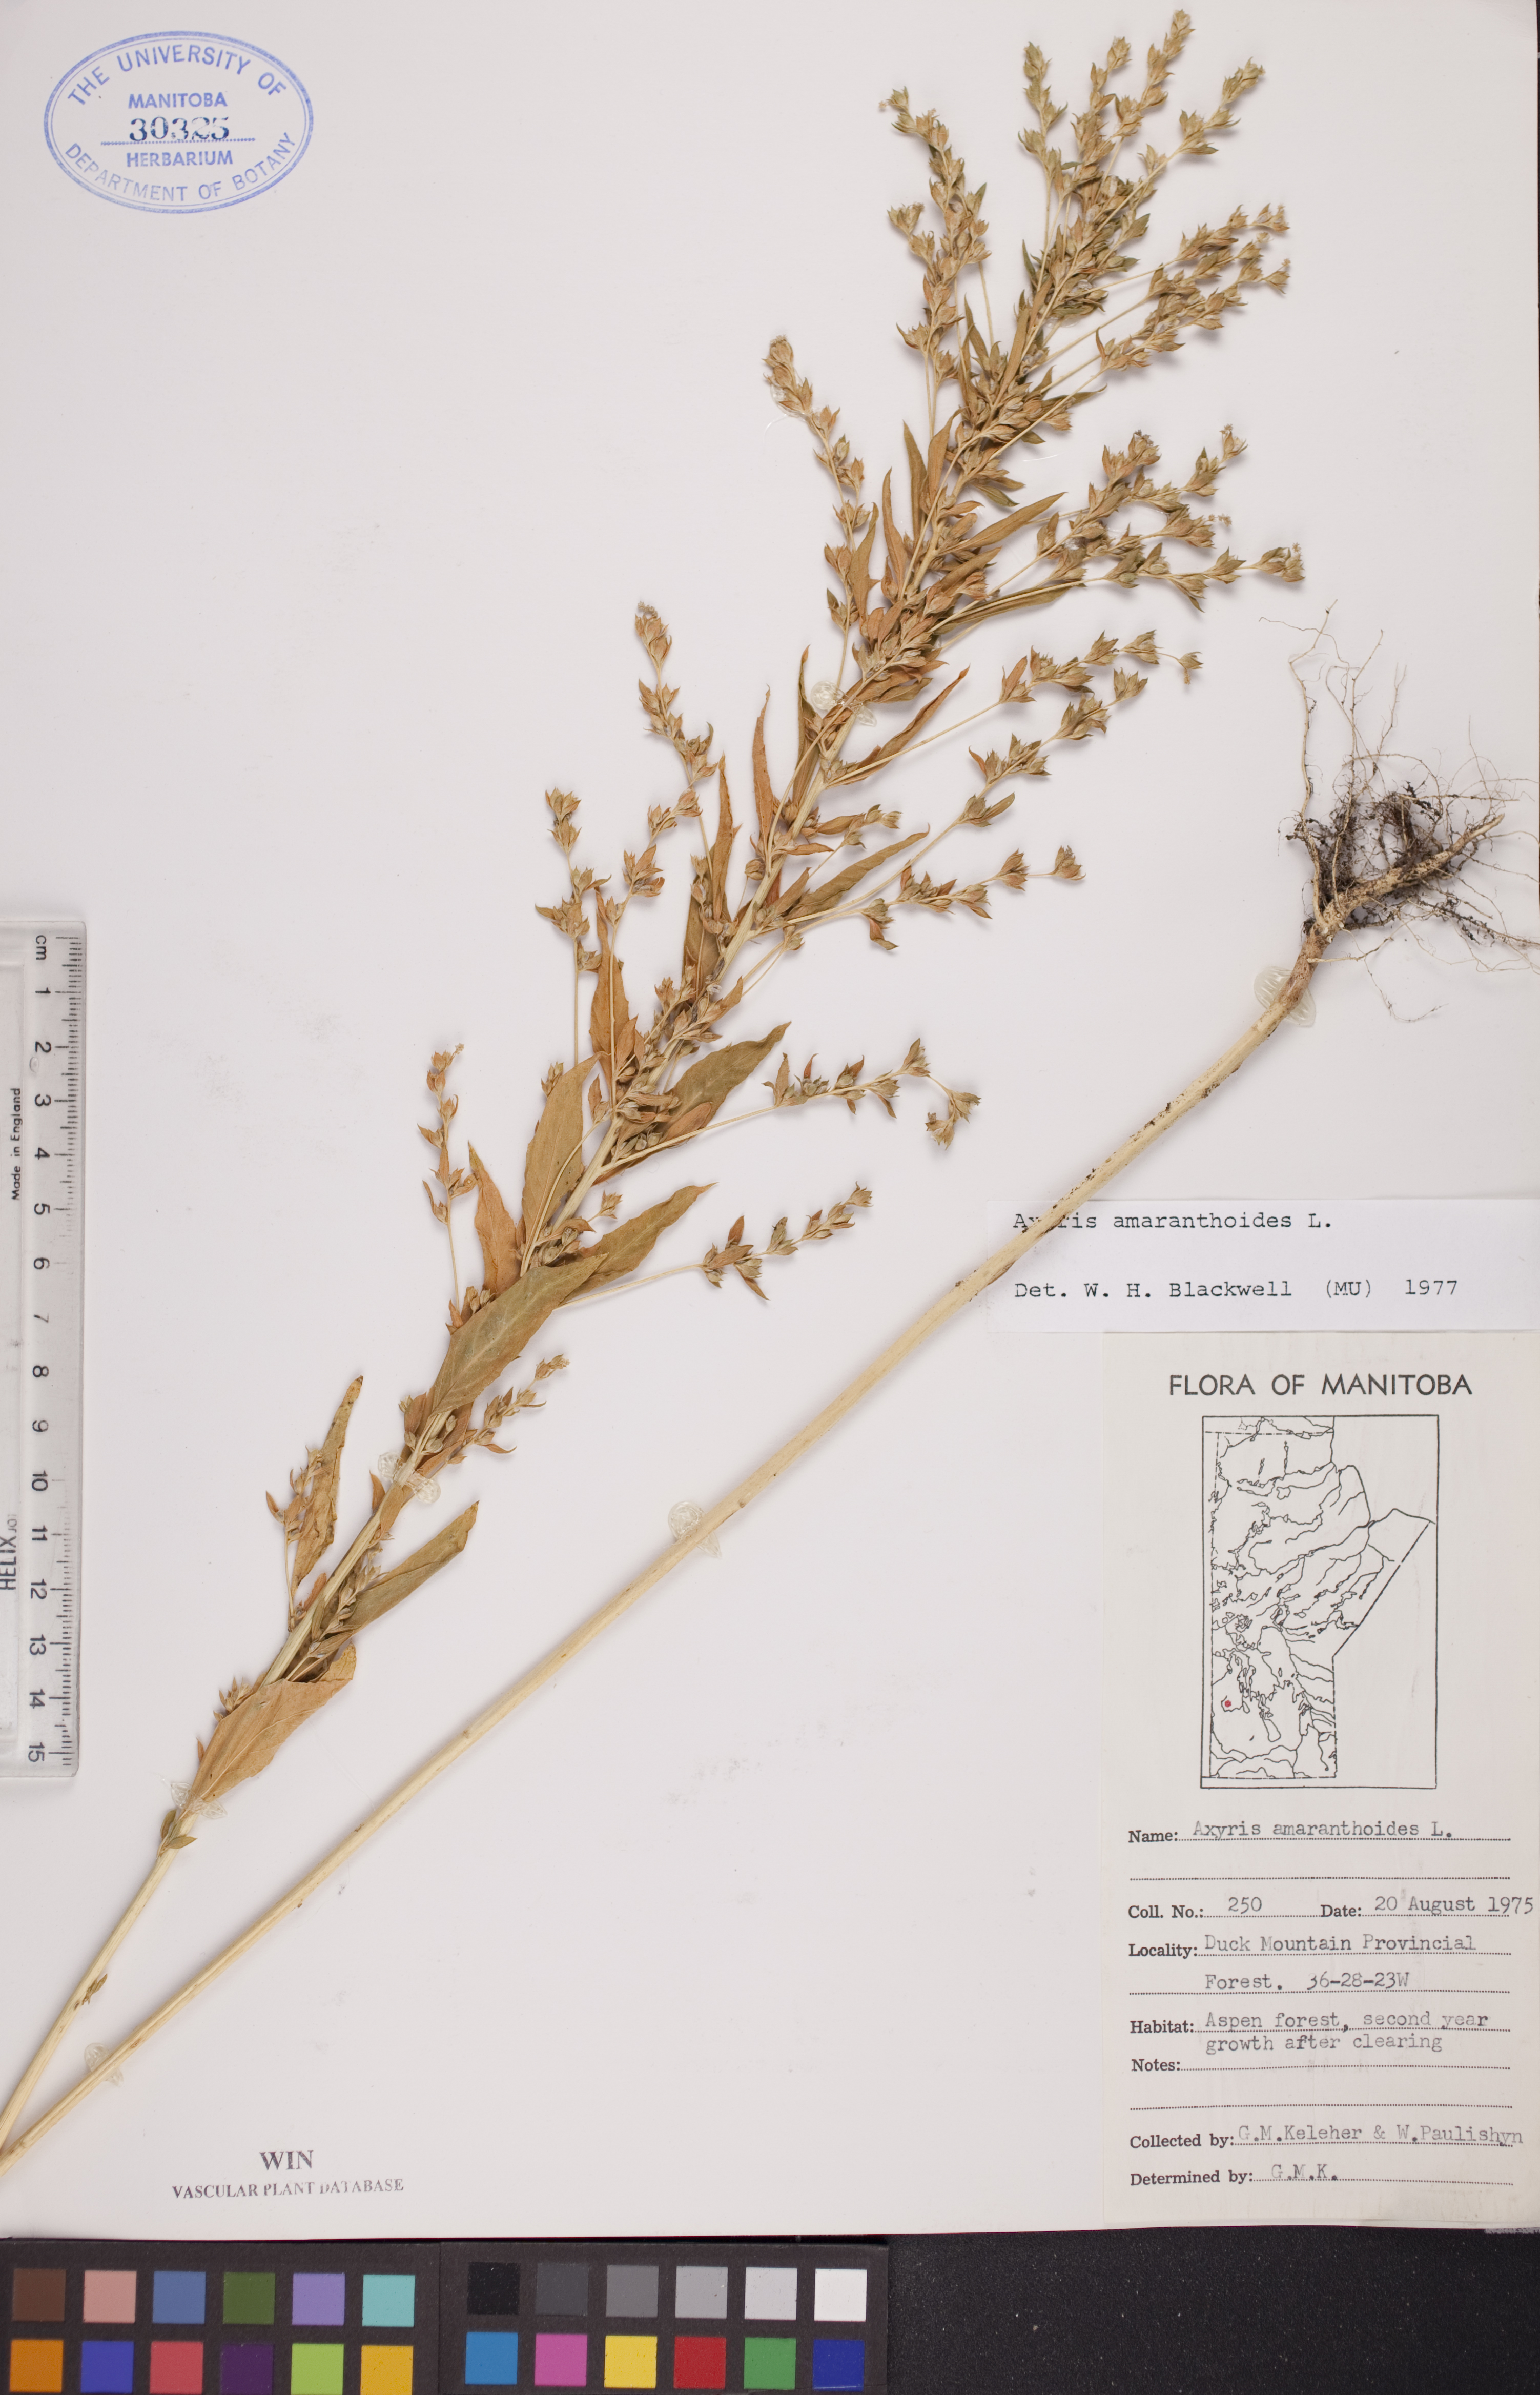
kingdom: Plantae
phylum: Tracheophyta
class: Magnoliopsida
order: Caryophyllales
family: Amaranthaceae
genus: Axyris
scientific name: Axyris amaranthoides
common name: Russian pigweed
